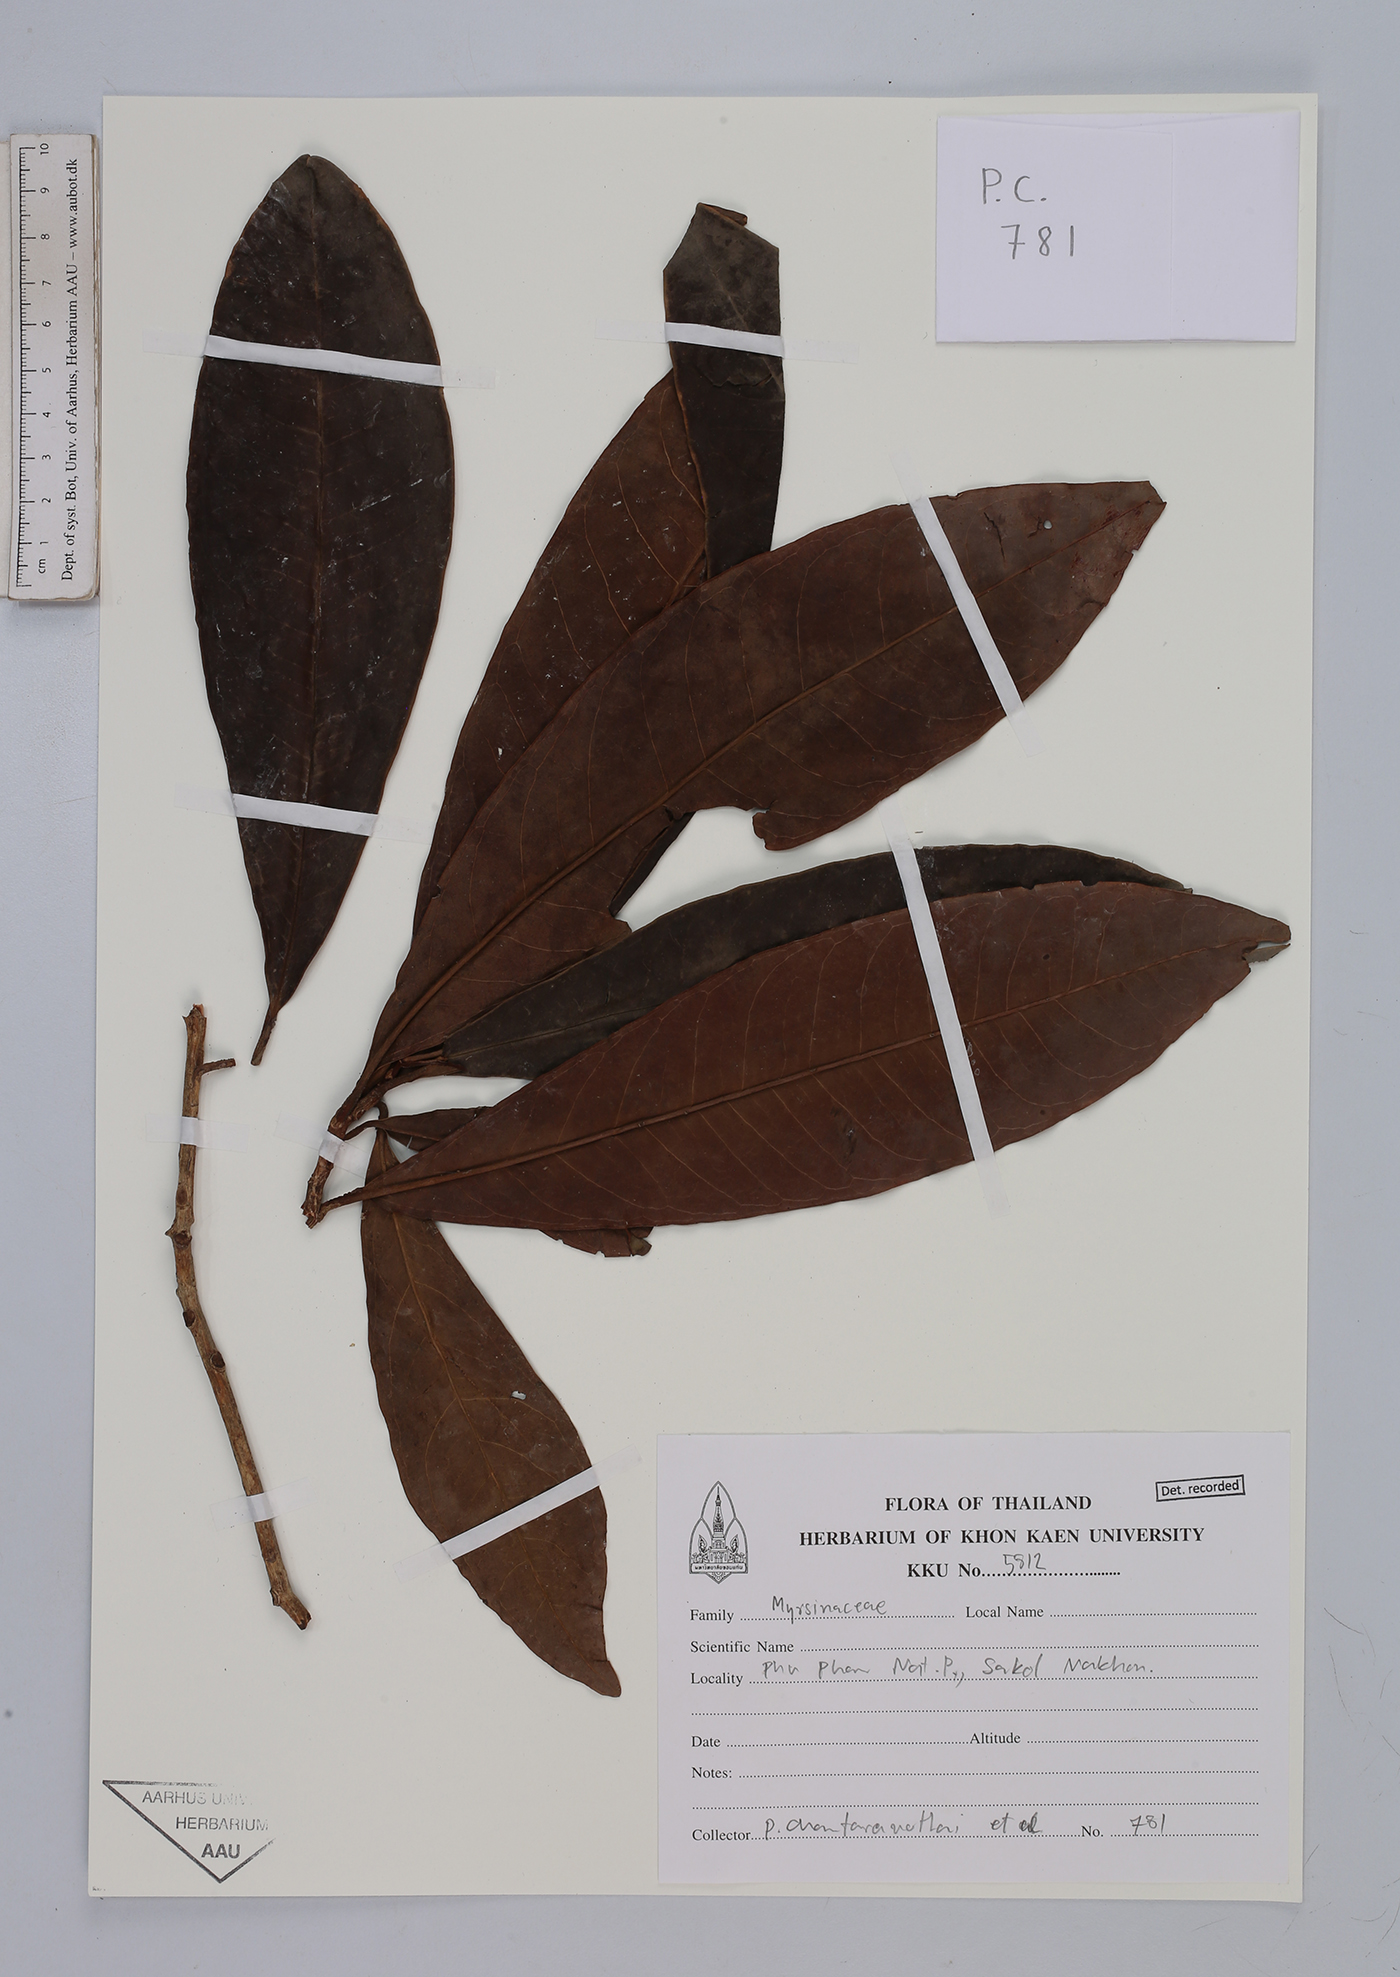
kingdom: Plantae
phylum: Tracheophyta
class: Magnoliopsida
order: Ericales
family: Primulaceae
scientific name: Primulaceae
